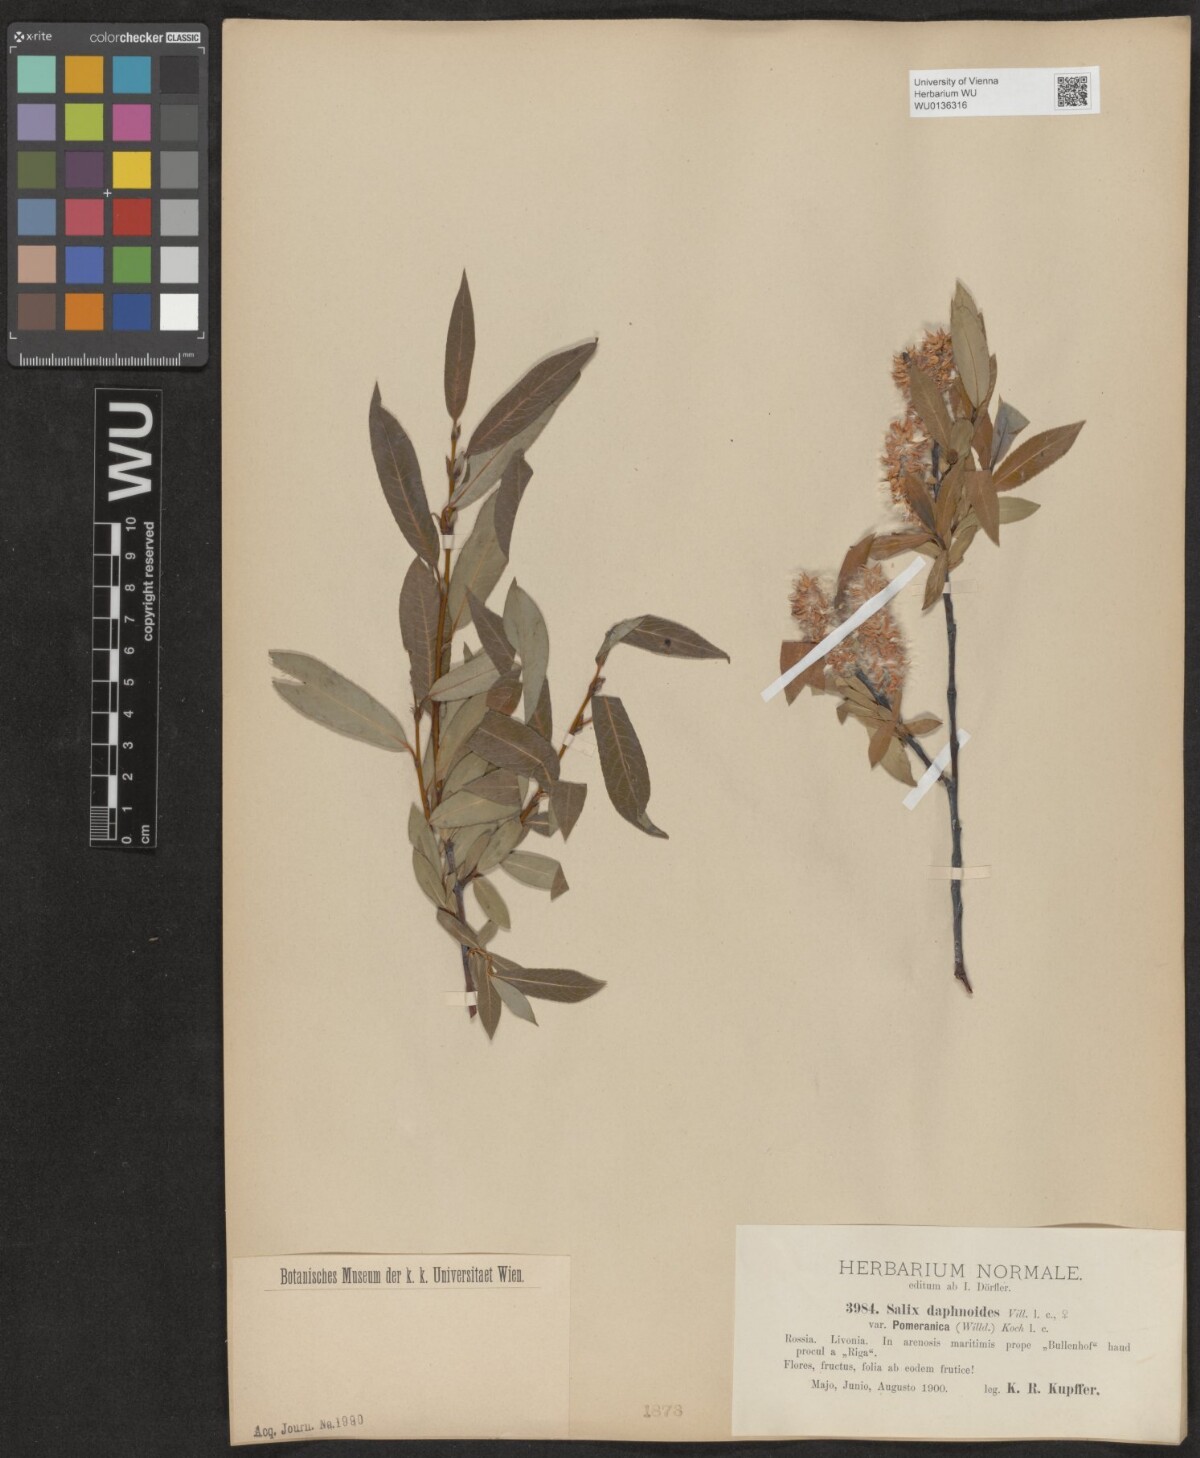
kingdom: Plantae
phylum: Tracheophyta
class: Magnoliopsida
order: Malpighiales
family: Salicaceae
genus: Salix
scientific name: Salix daphnoides
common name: European violet-willow
